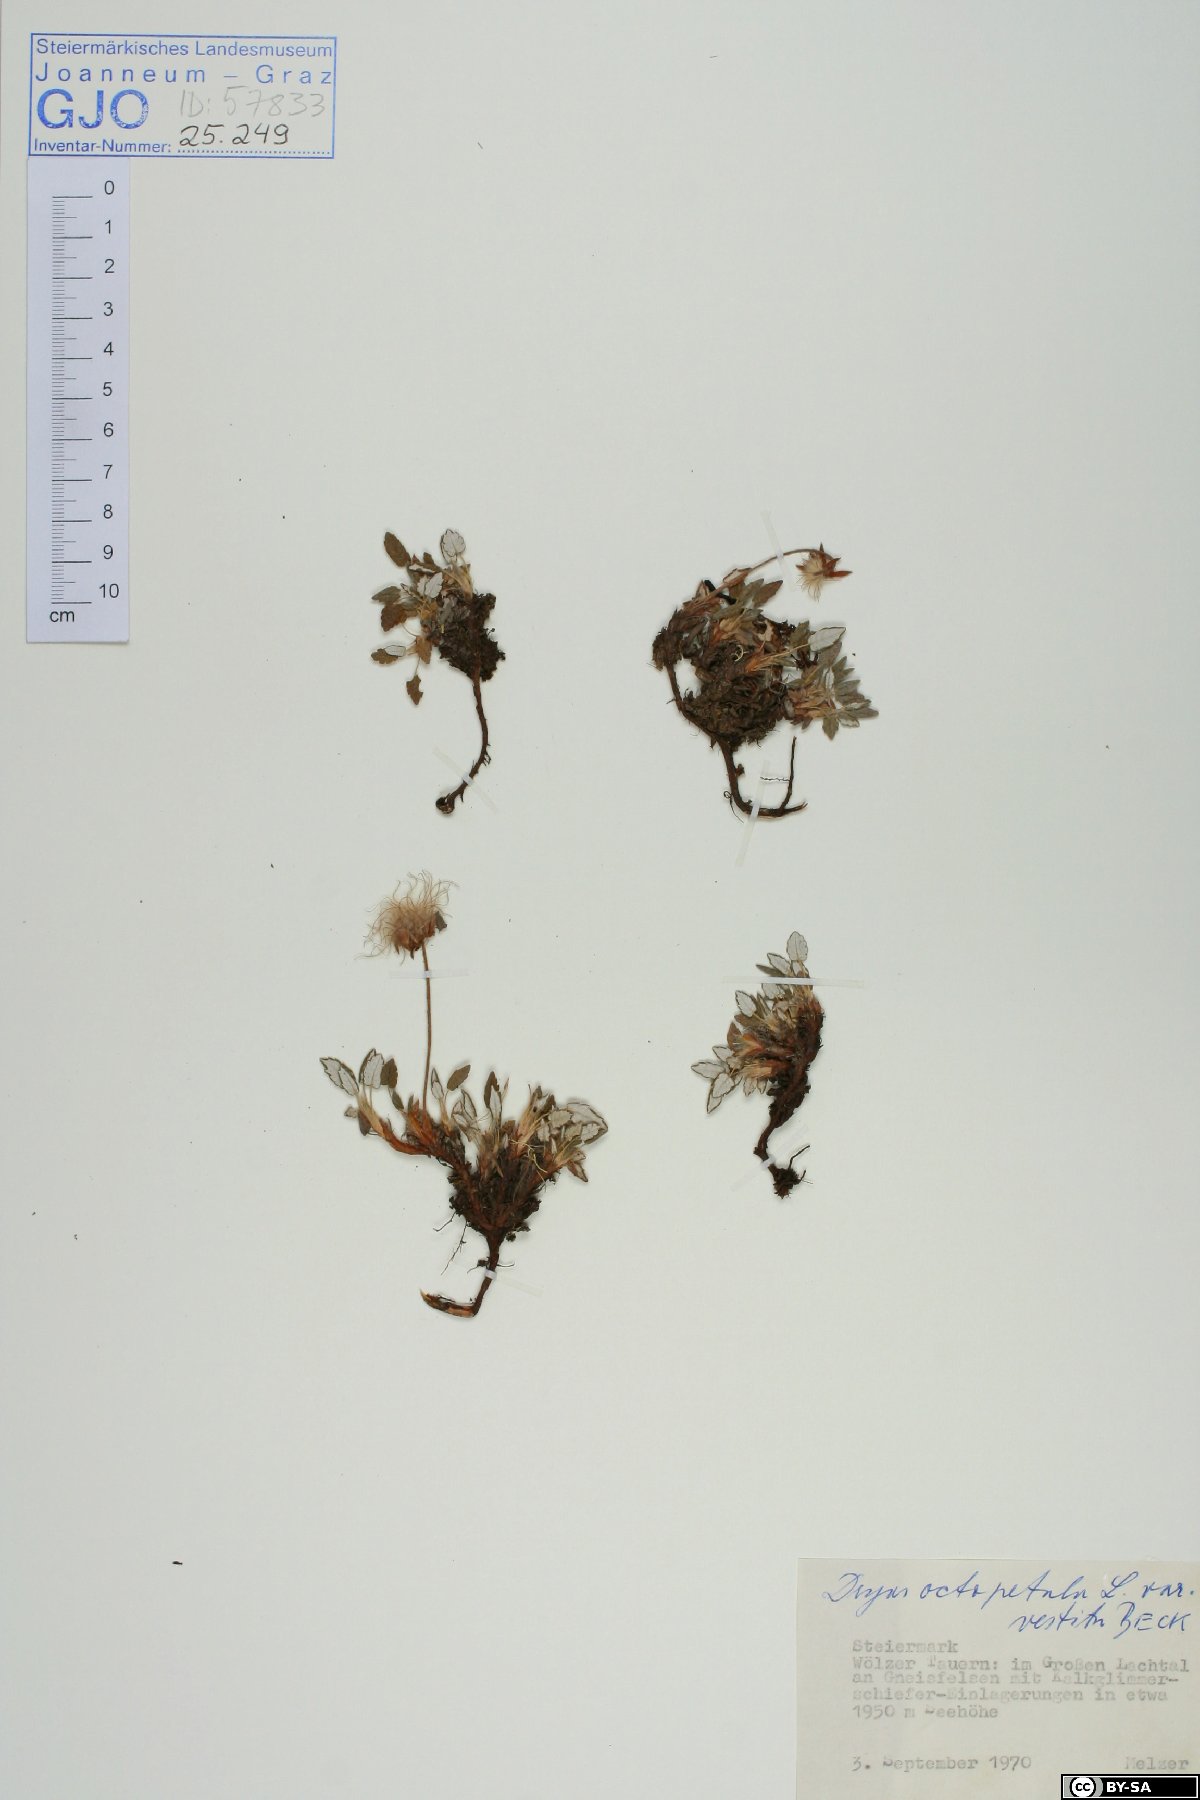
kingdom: Plantae
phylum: Tracheophyta
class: Magnoliopsida
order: Rosales
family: Rosaceae
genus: Dryas
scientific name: Dryas octopetala
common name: Eight-petal mountain-avens
